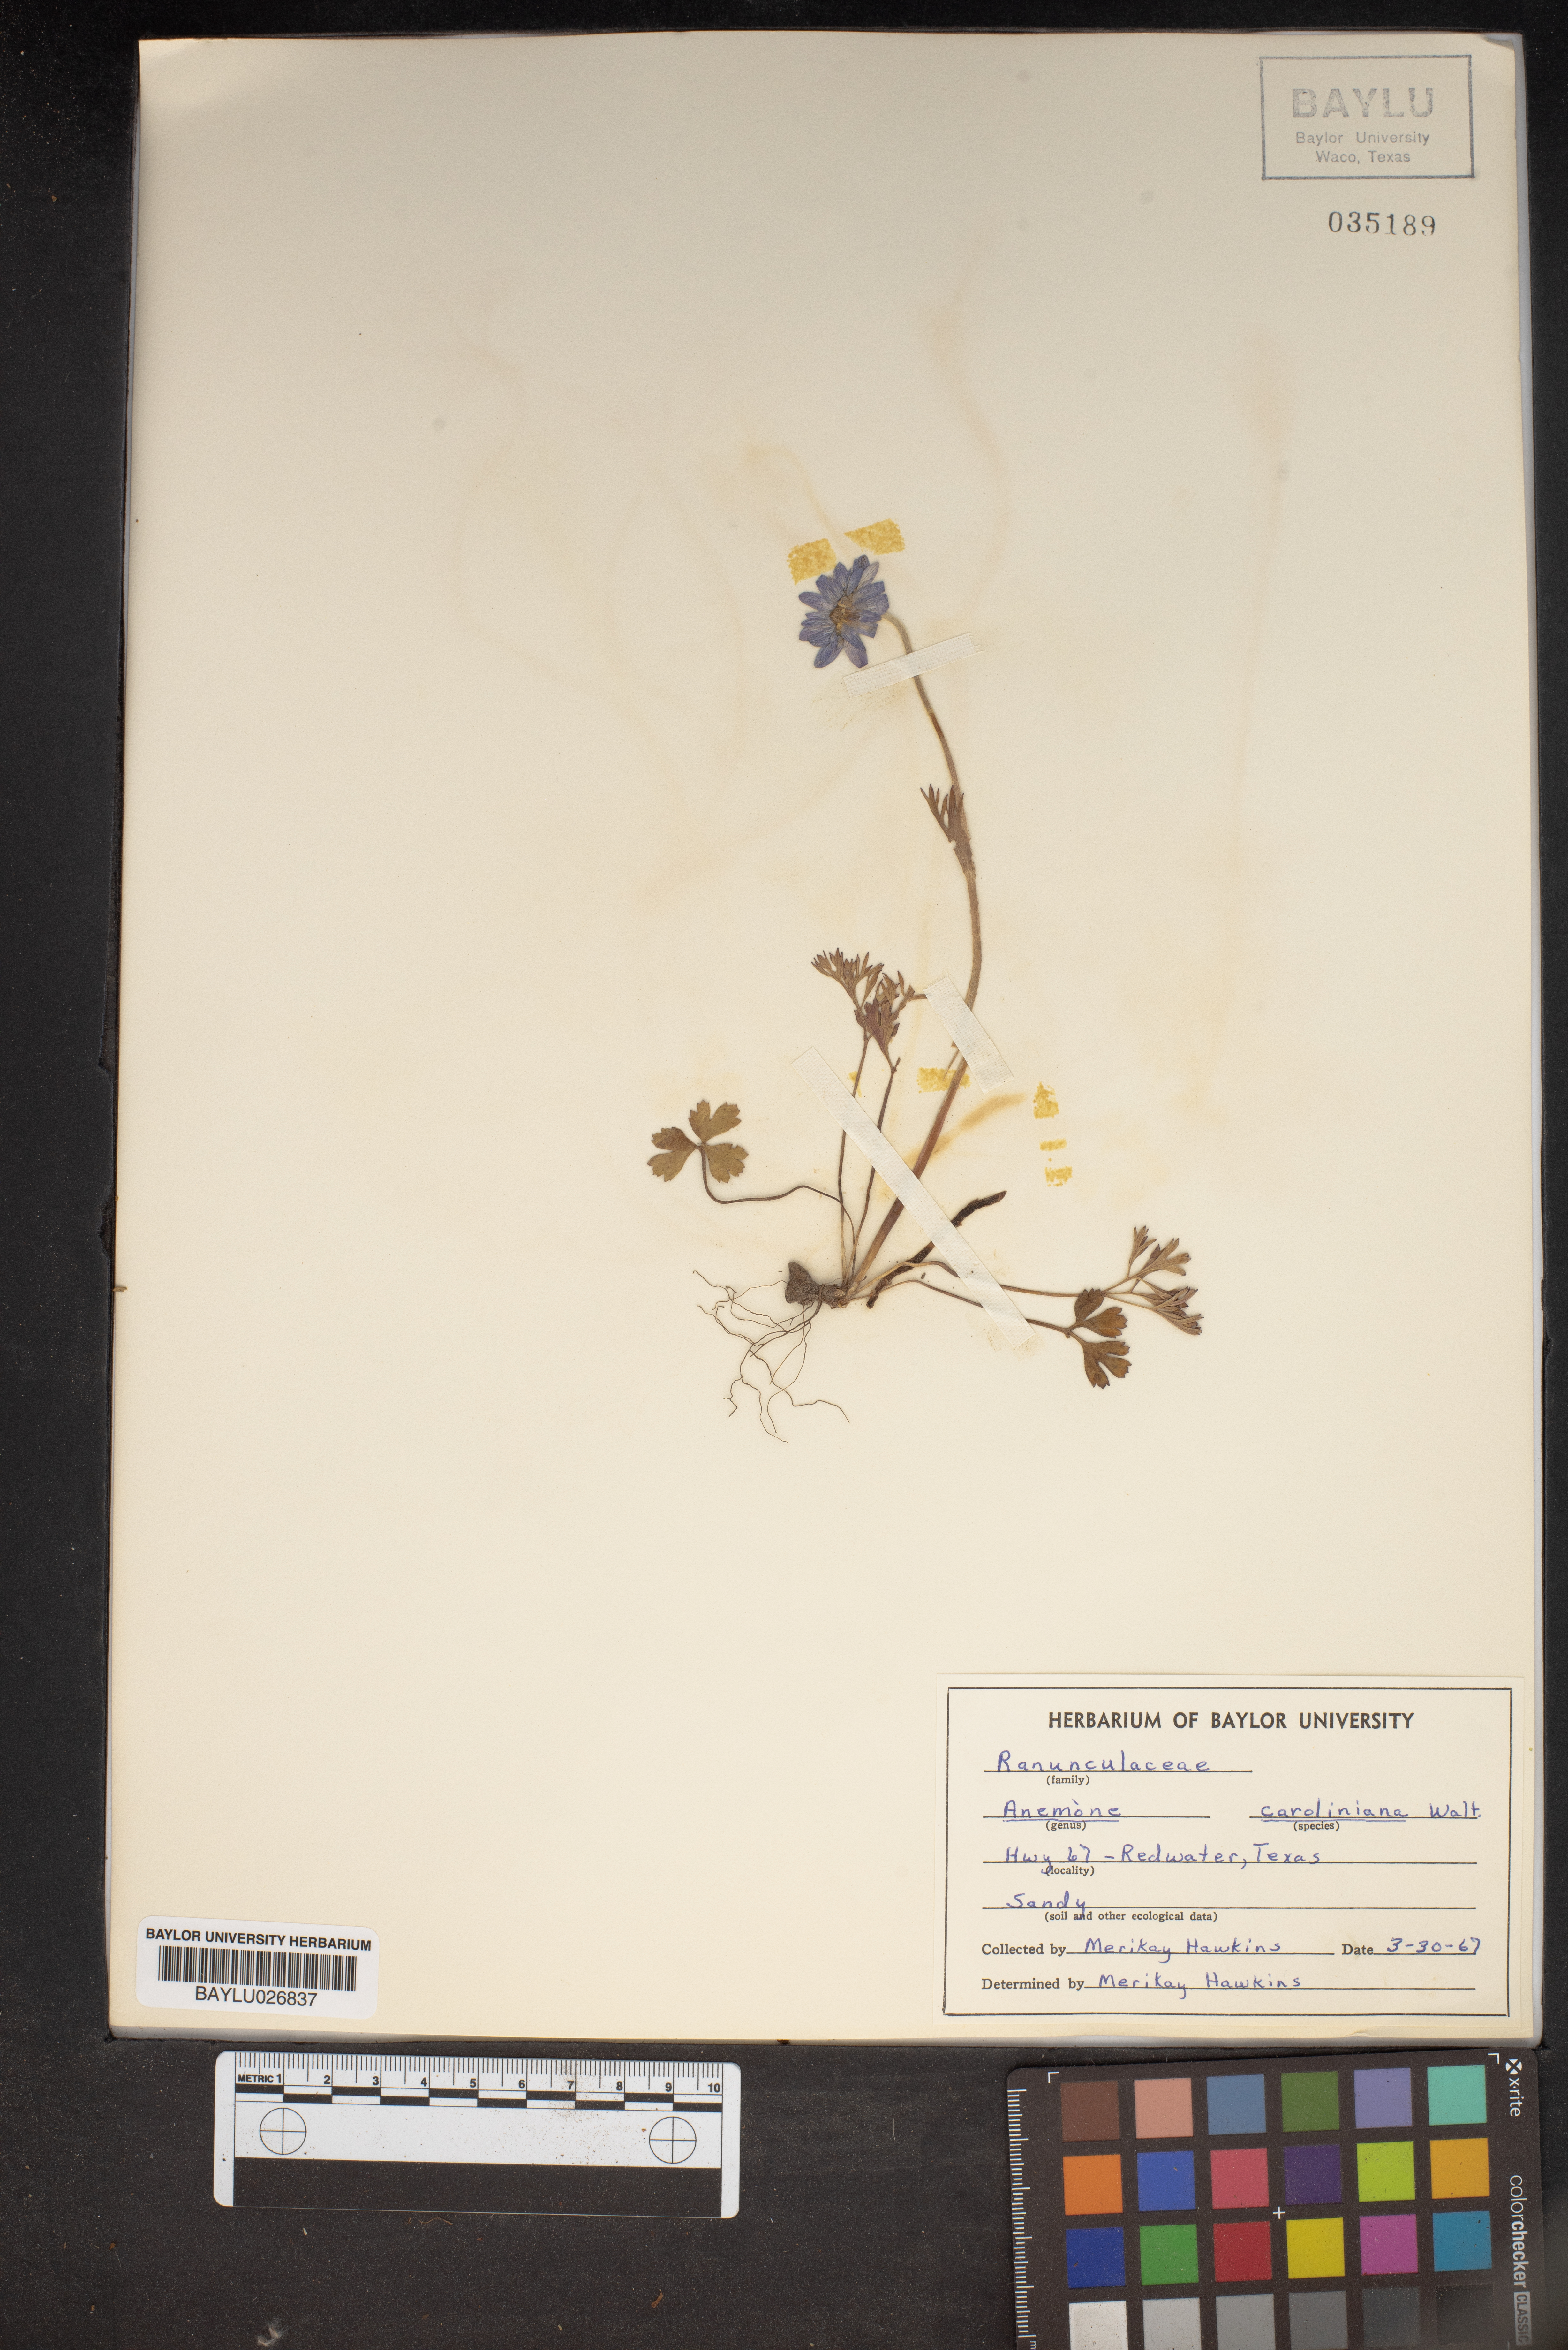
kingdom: Plantae
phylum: Tracheophyta
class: Magnoliopsida
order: Ranunculales
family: Ranunculaceae
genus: Anemone
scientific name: Anemone caroliniana
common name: Carolina anemone
